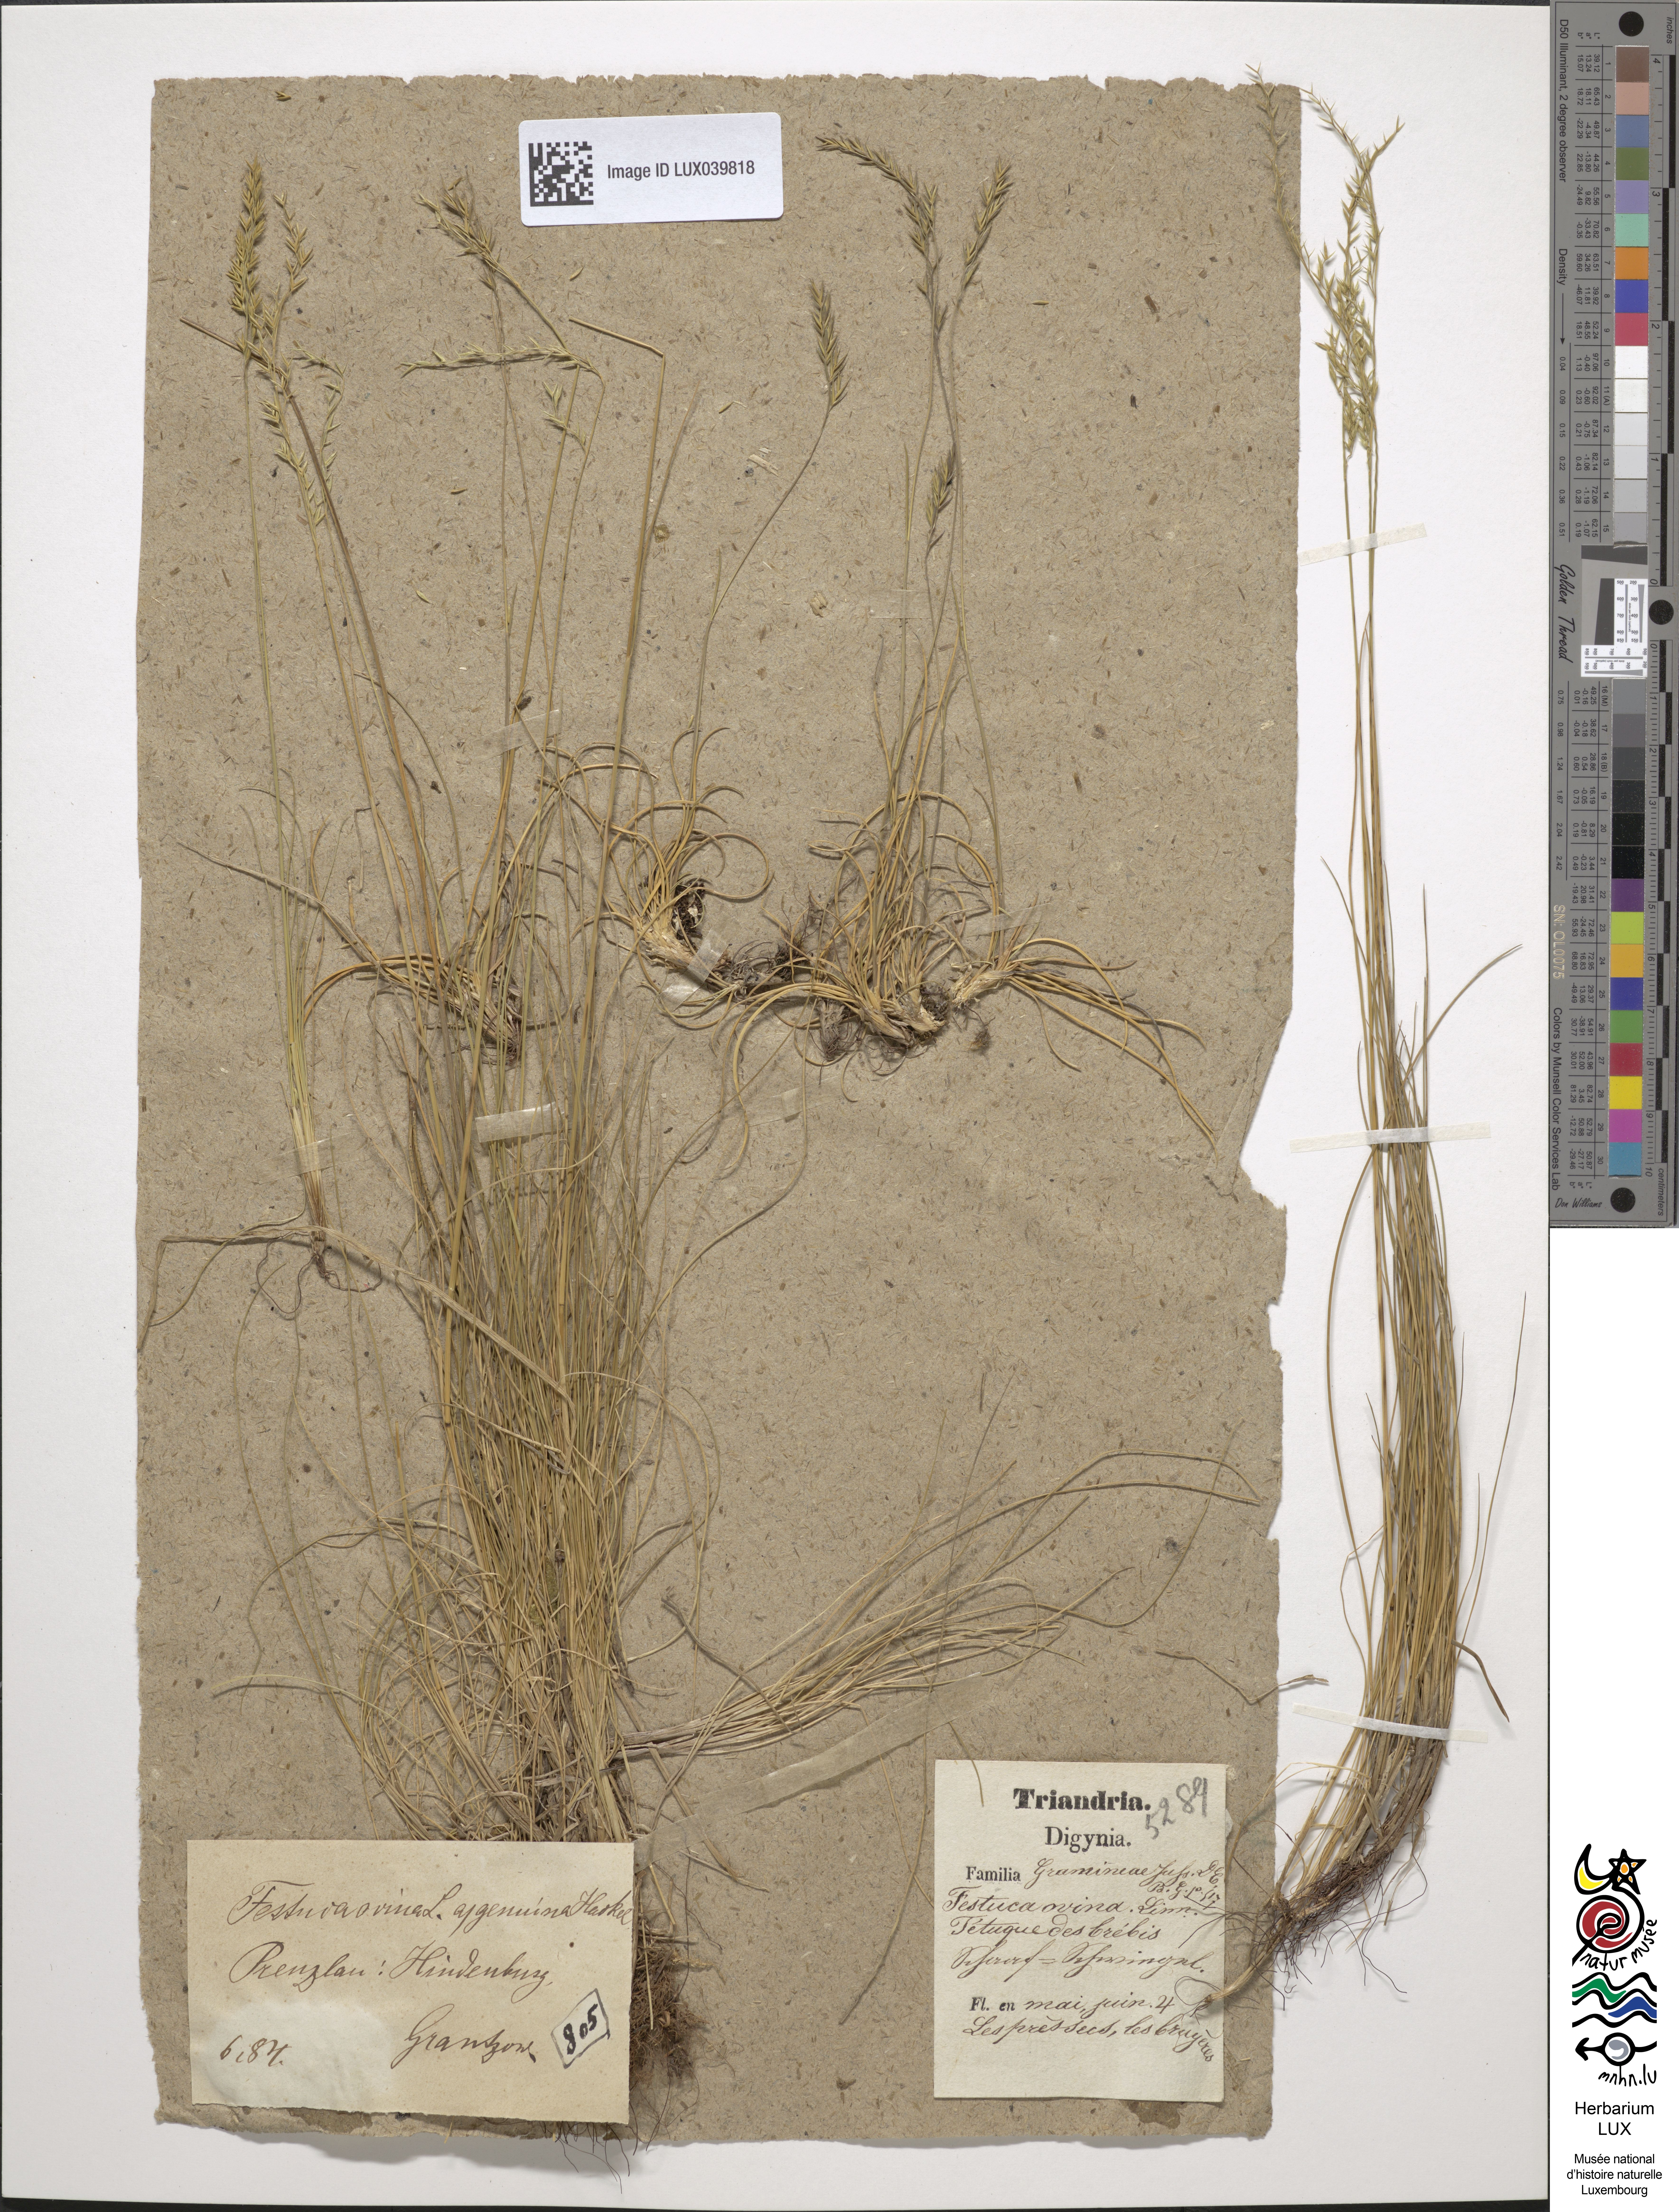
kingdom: Plantae
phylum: Tracheophyta
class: Liliopsida
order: Poales
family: Poaceae
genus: Festuca
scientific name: Festuca ovina
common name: Sheep fescue
